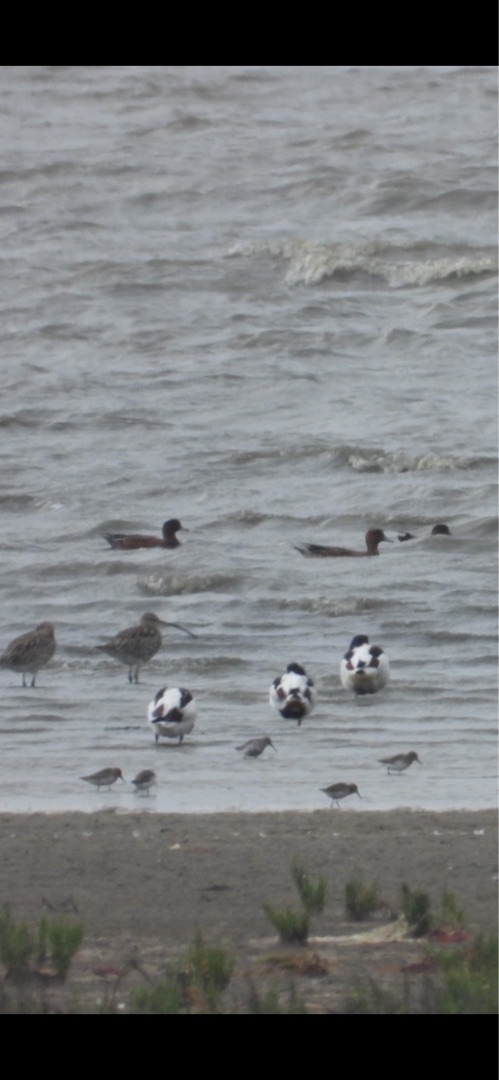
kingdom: Animalia
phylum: Chordata
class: Aves
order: Anseriformes
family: Anatidae
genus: Mareca
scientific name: Mareca penelope
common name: Pibeand
